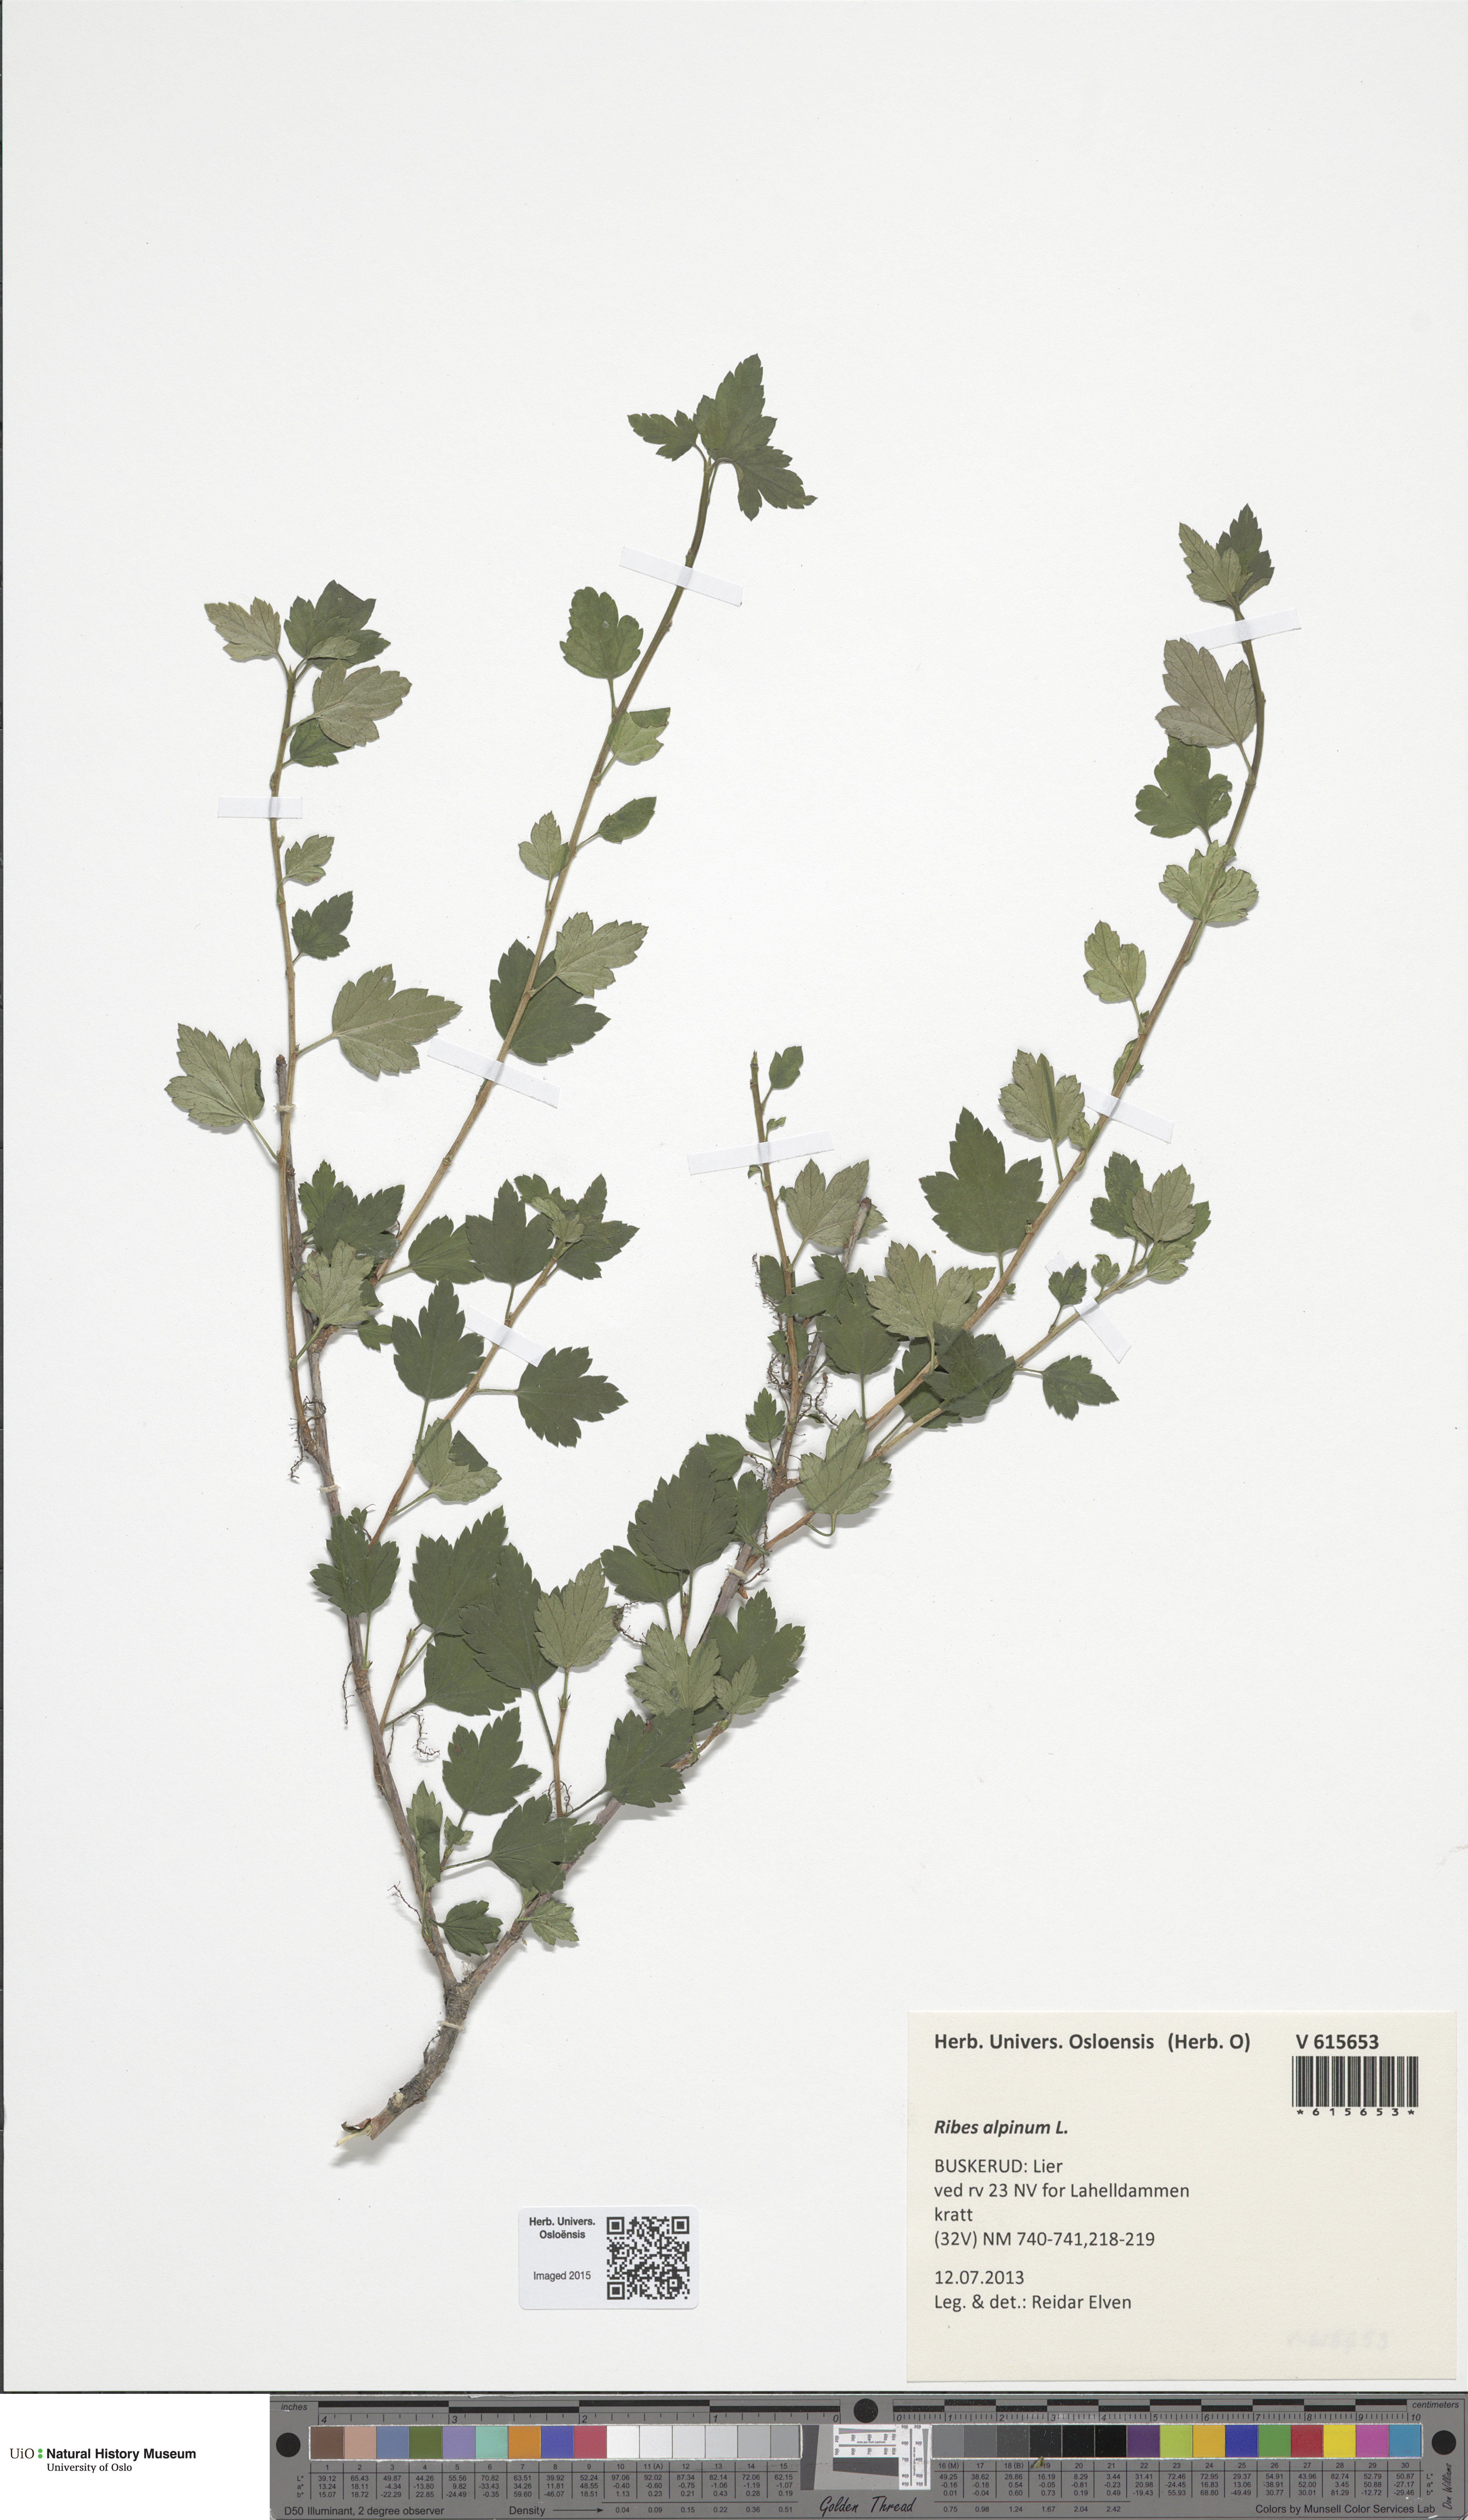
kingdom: Plantae
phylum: Tracheophyta
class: Magnoliopsida
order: Saxifragales
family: Grossulariaceae
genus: Ribes
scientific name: Ribes alpinum
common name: Alpine currant
